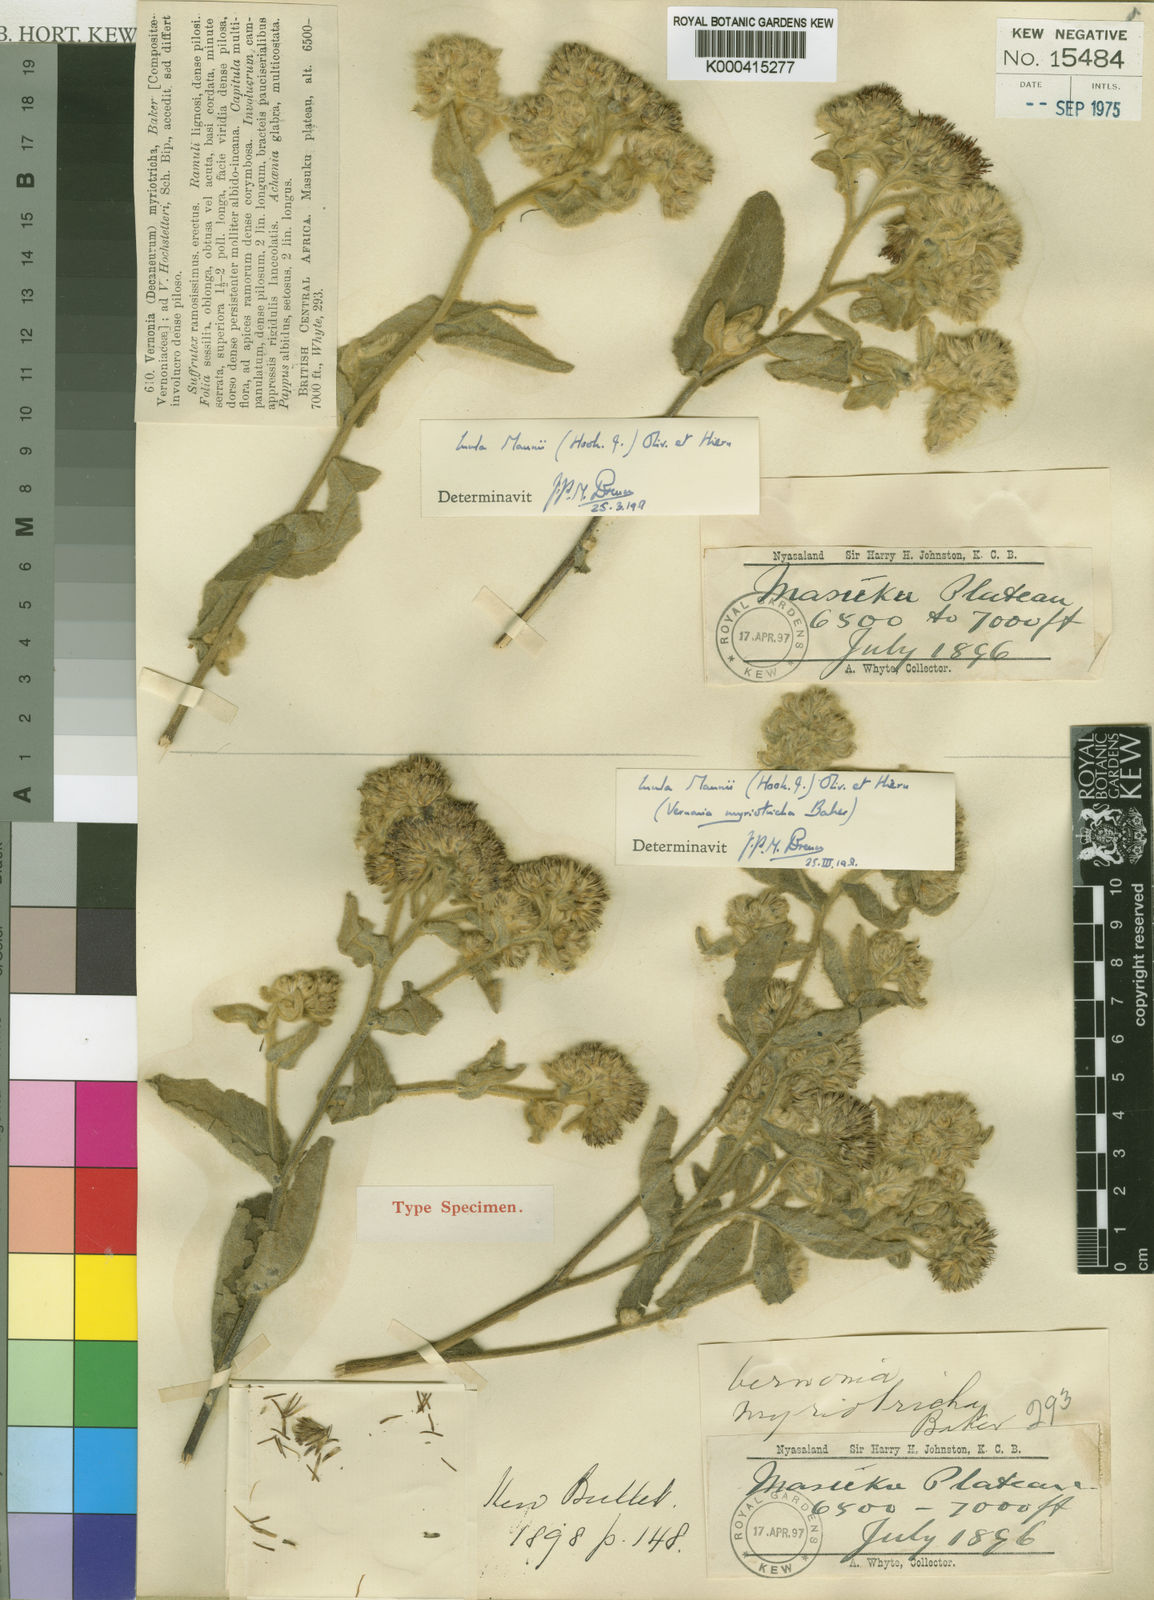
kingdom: Plantae
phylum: Tracheophyta
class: Magnoliopsida
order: Asterales
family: Asteraceae
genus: Inula
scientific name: Inula mannii
